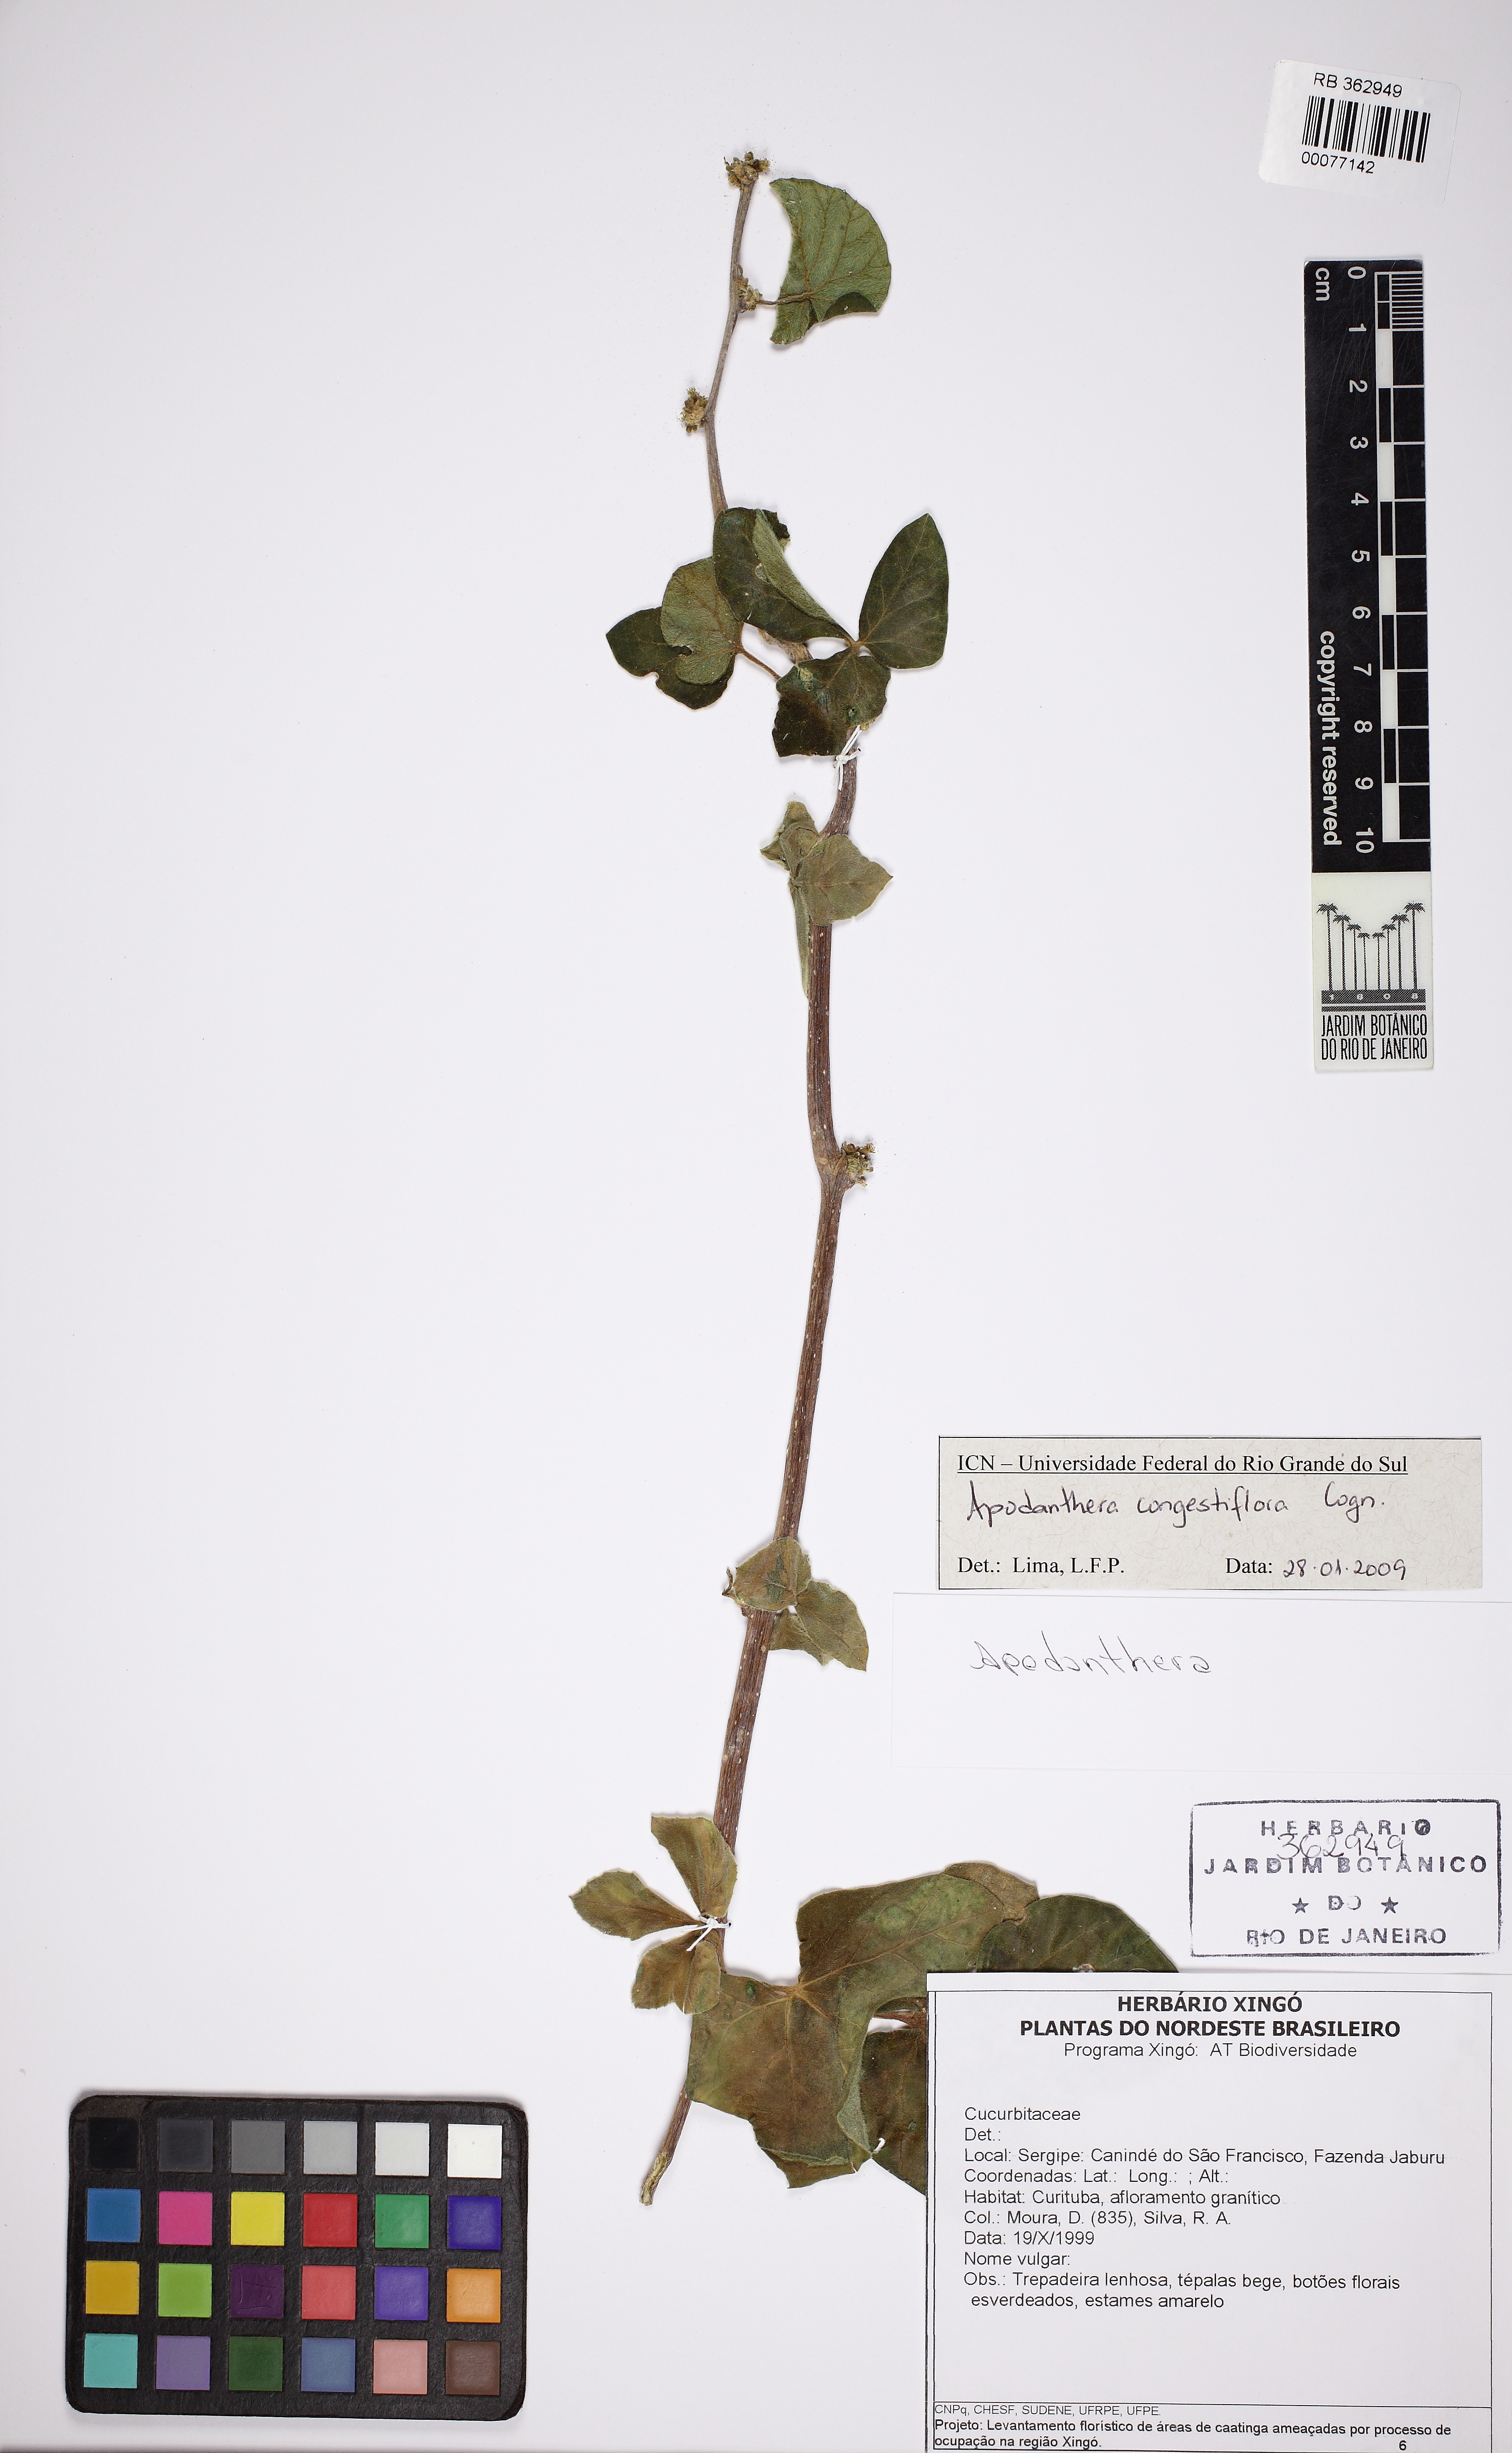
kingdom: Plantae
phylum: Tracheophyta
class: Magnoliopsida
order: Cucurbitales
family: Cucurbitaceae
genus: Apodanthera
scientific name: Apodanthera congestiflora
